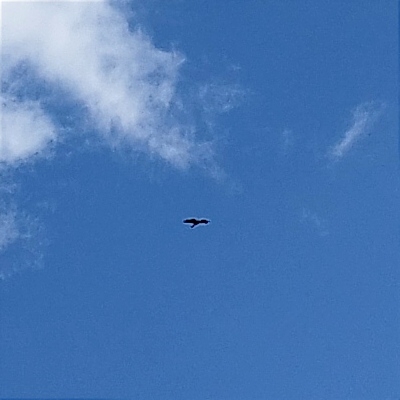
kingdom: Animalia
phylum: Chordata
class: Aves
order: Accipitriformes
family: Accipitridae
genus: Circus
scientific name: Circus aeruginosus
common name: Rørhøg
